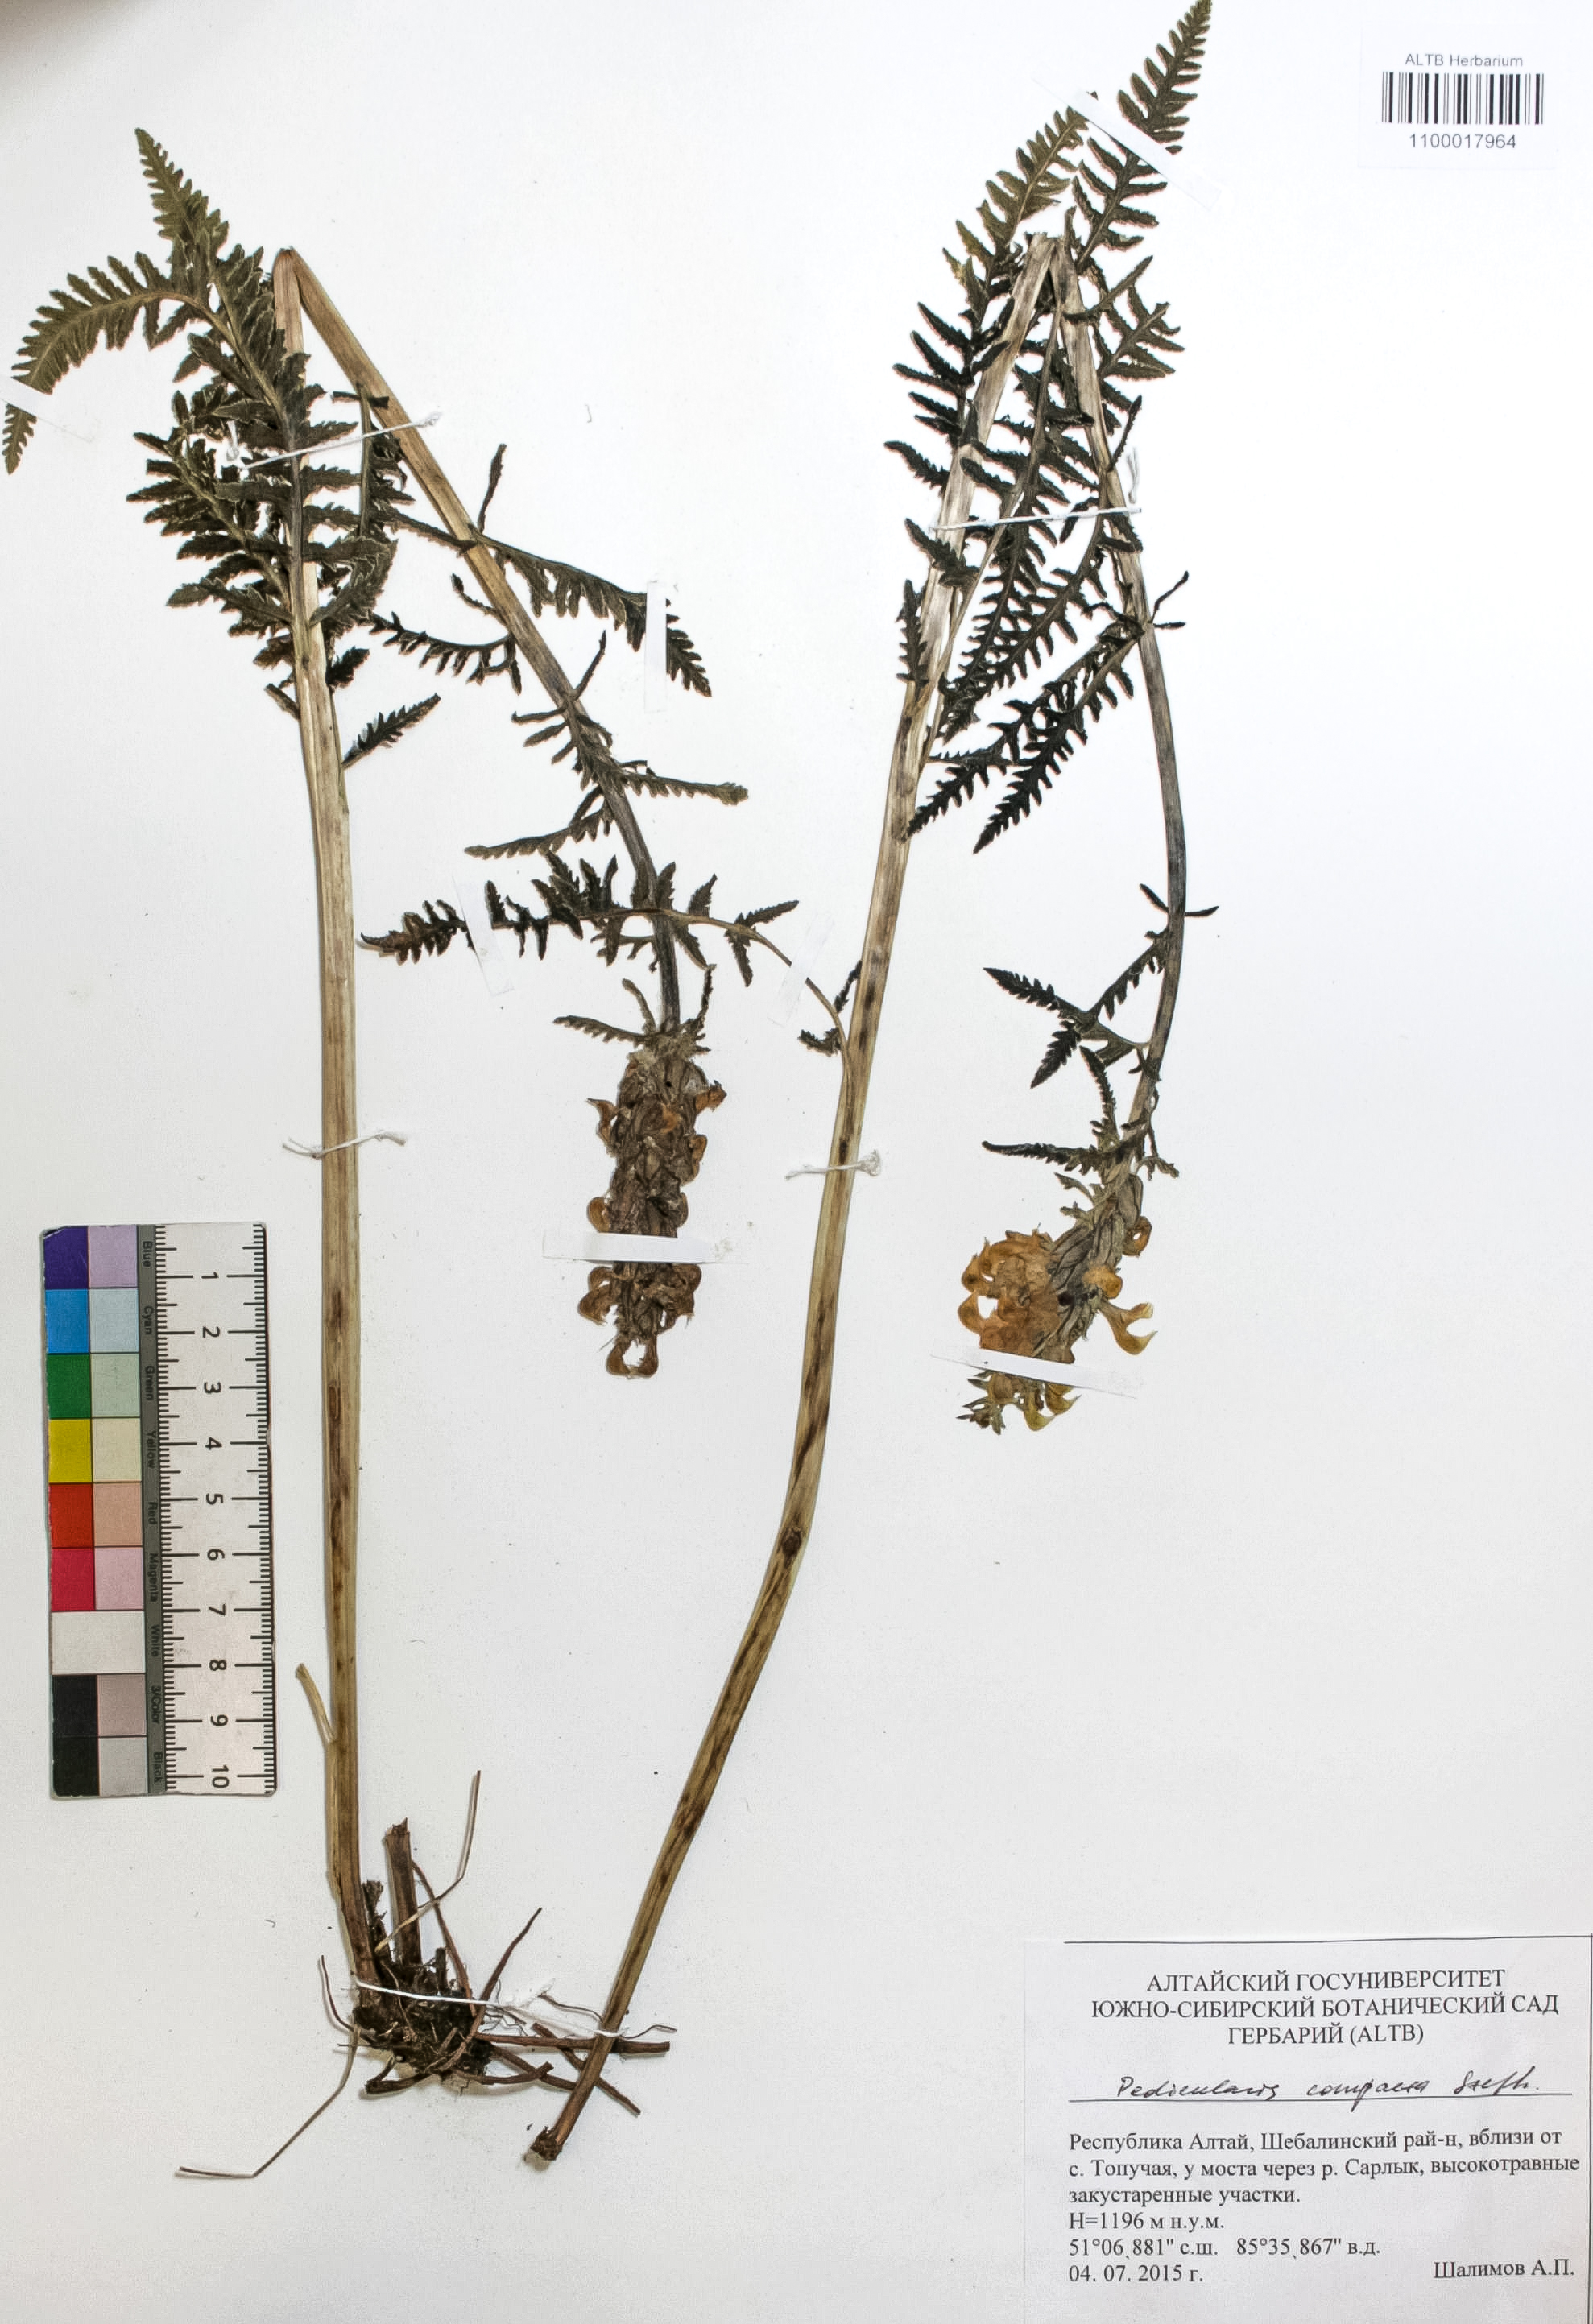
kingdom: Plantae
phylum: Tracheophyta
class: Magnoliopsida
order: Lamiales
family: Orobanchaceae
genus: Pedicularis
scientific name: Pedicularis compacta
